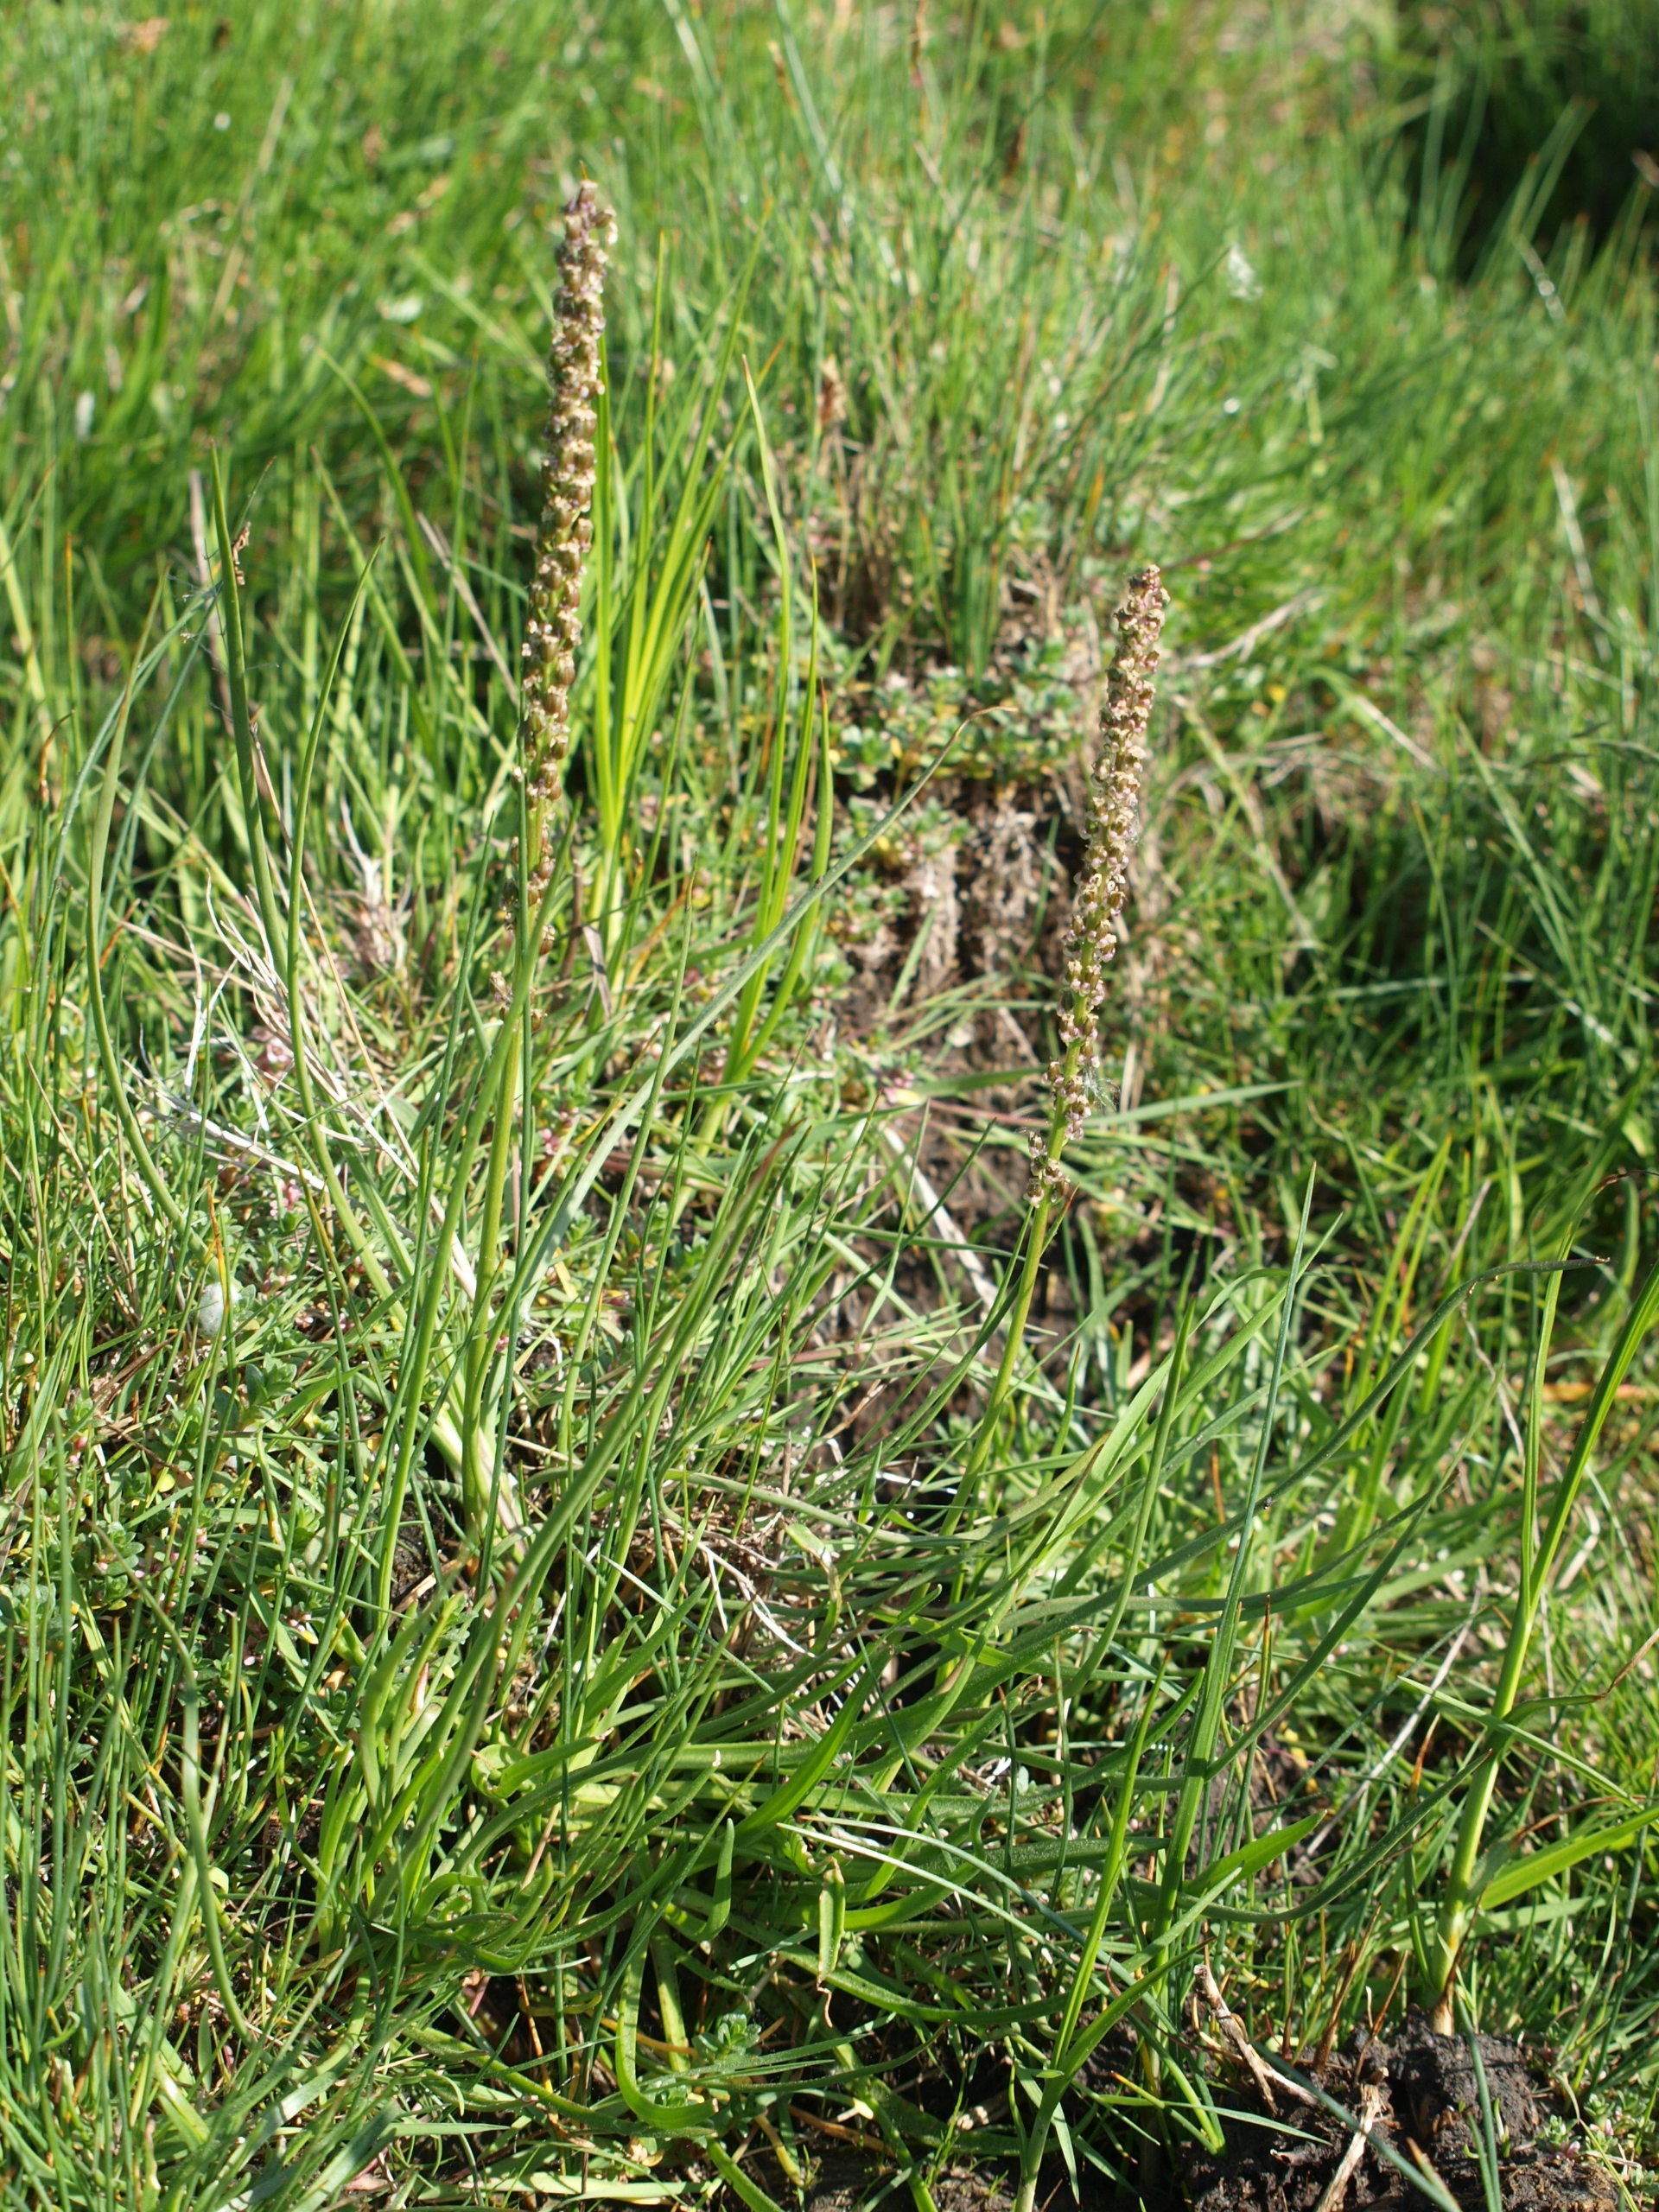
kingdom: Plantae
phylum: Tracheophyta
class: Magnoliopsida
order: Lamiales
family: Plantaginaceae
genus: Plantago
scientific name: Plantago maritima
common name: Strand-vejbred
